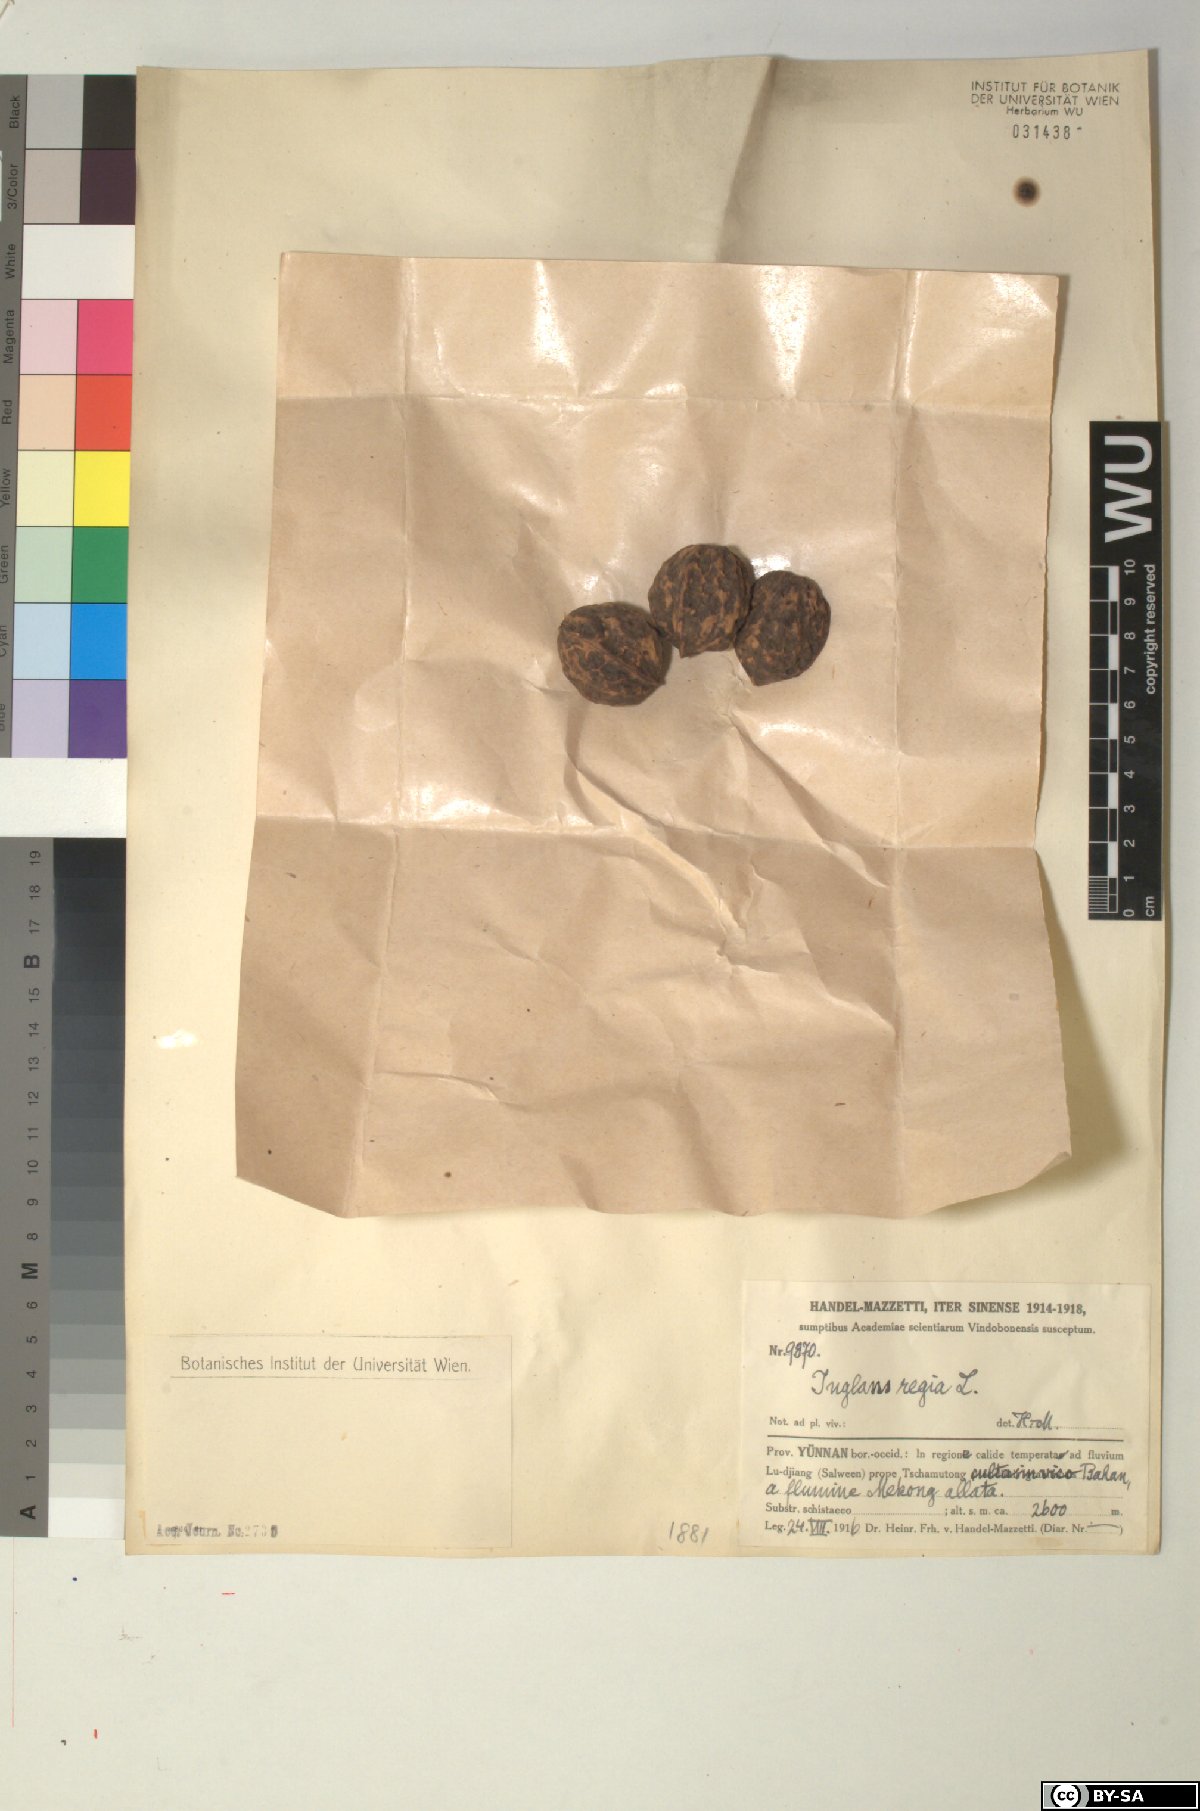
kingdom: Plantae
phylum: Tracheophyta
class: Magnoliopsida
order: Fagales
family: Juglandaceae
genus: Juglans
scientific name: Juglans regia
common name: Walnut
